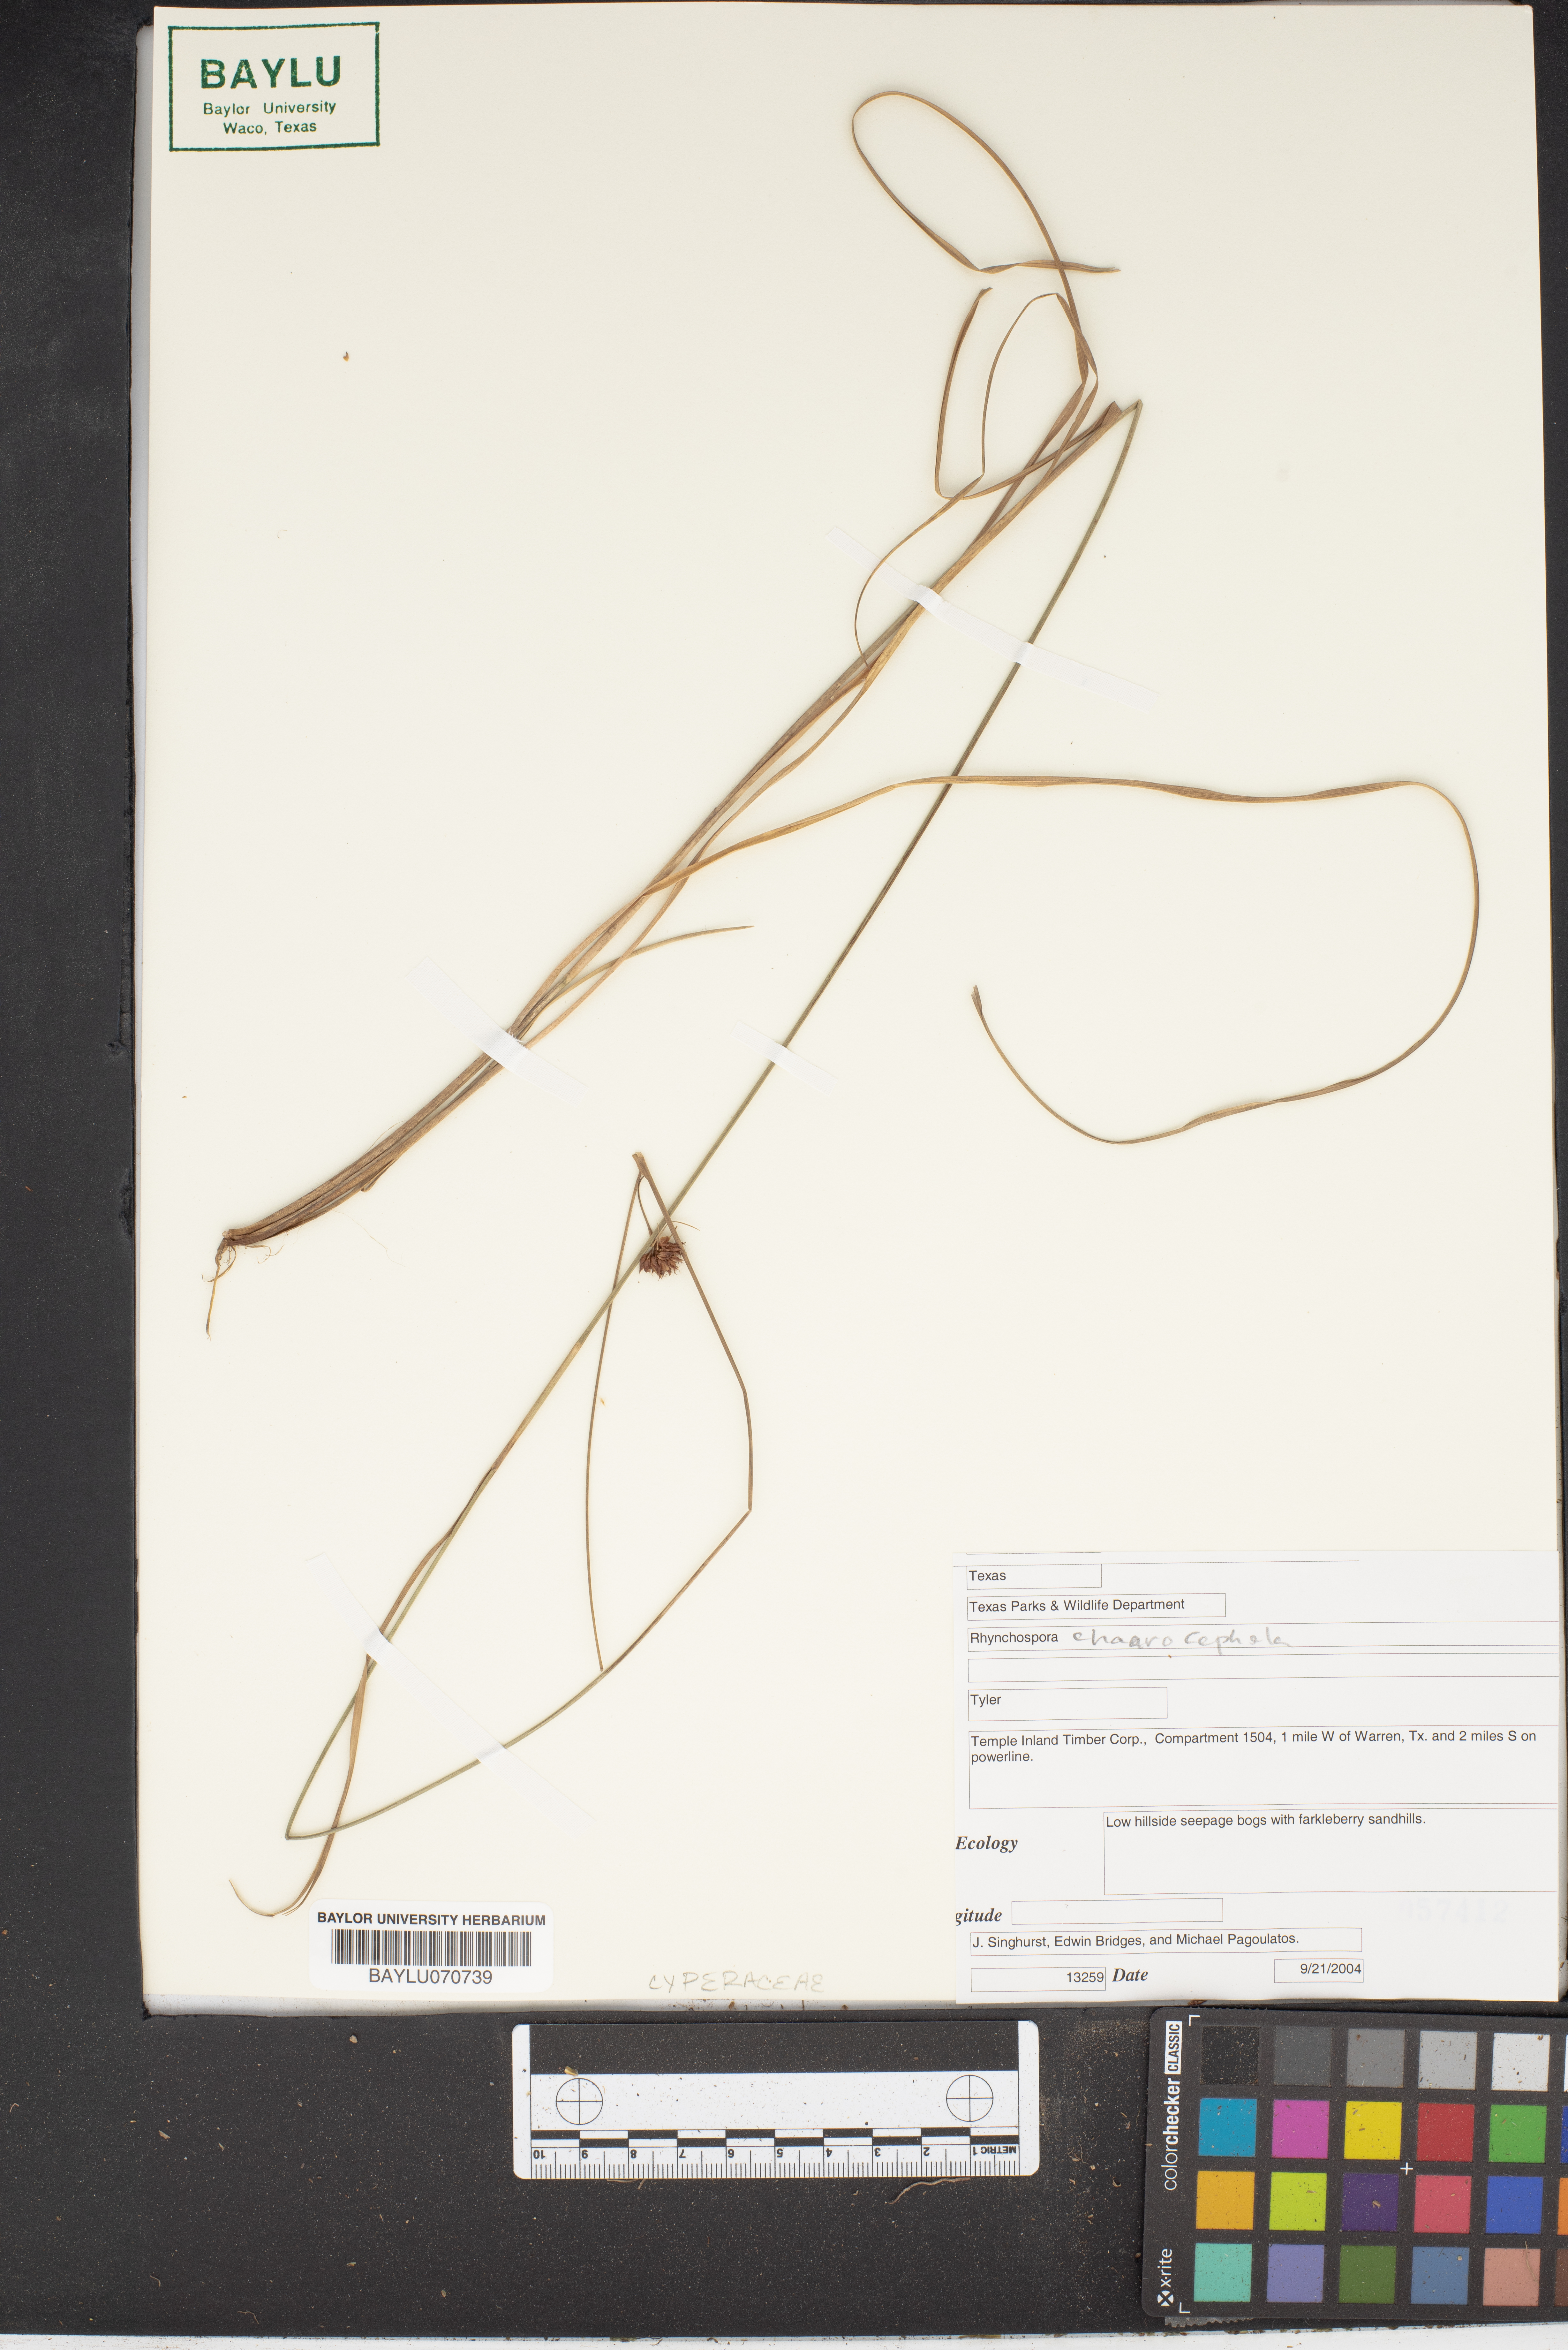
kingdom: Plantae
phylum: Tracheophyta
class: Liliopsida
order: Poales
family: Cyperaceae
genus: Rhynchospora
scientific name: Rhynchospora chalarocephala
